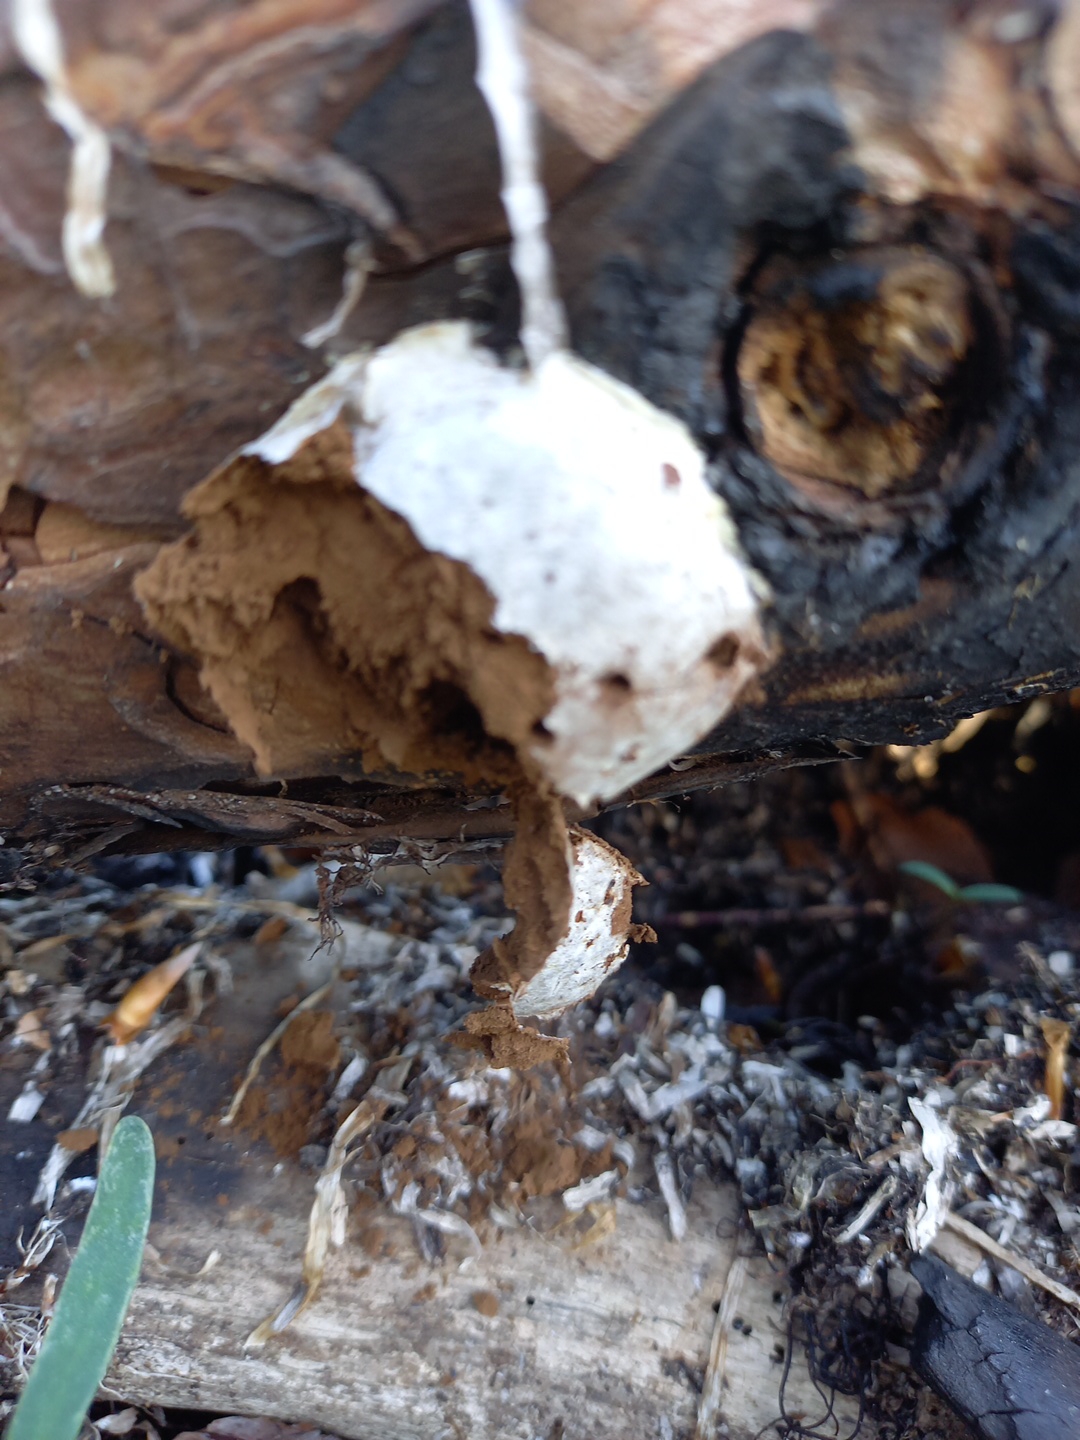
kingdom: Protozoa
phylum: Mycetozoa
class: Myxomycetes
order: Cribrariales
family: Tubiferaceae
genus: Reticularia
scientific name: Reticularia lycoperdon
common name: skinnende støvpude
